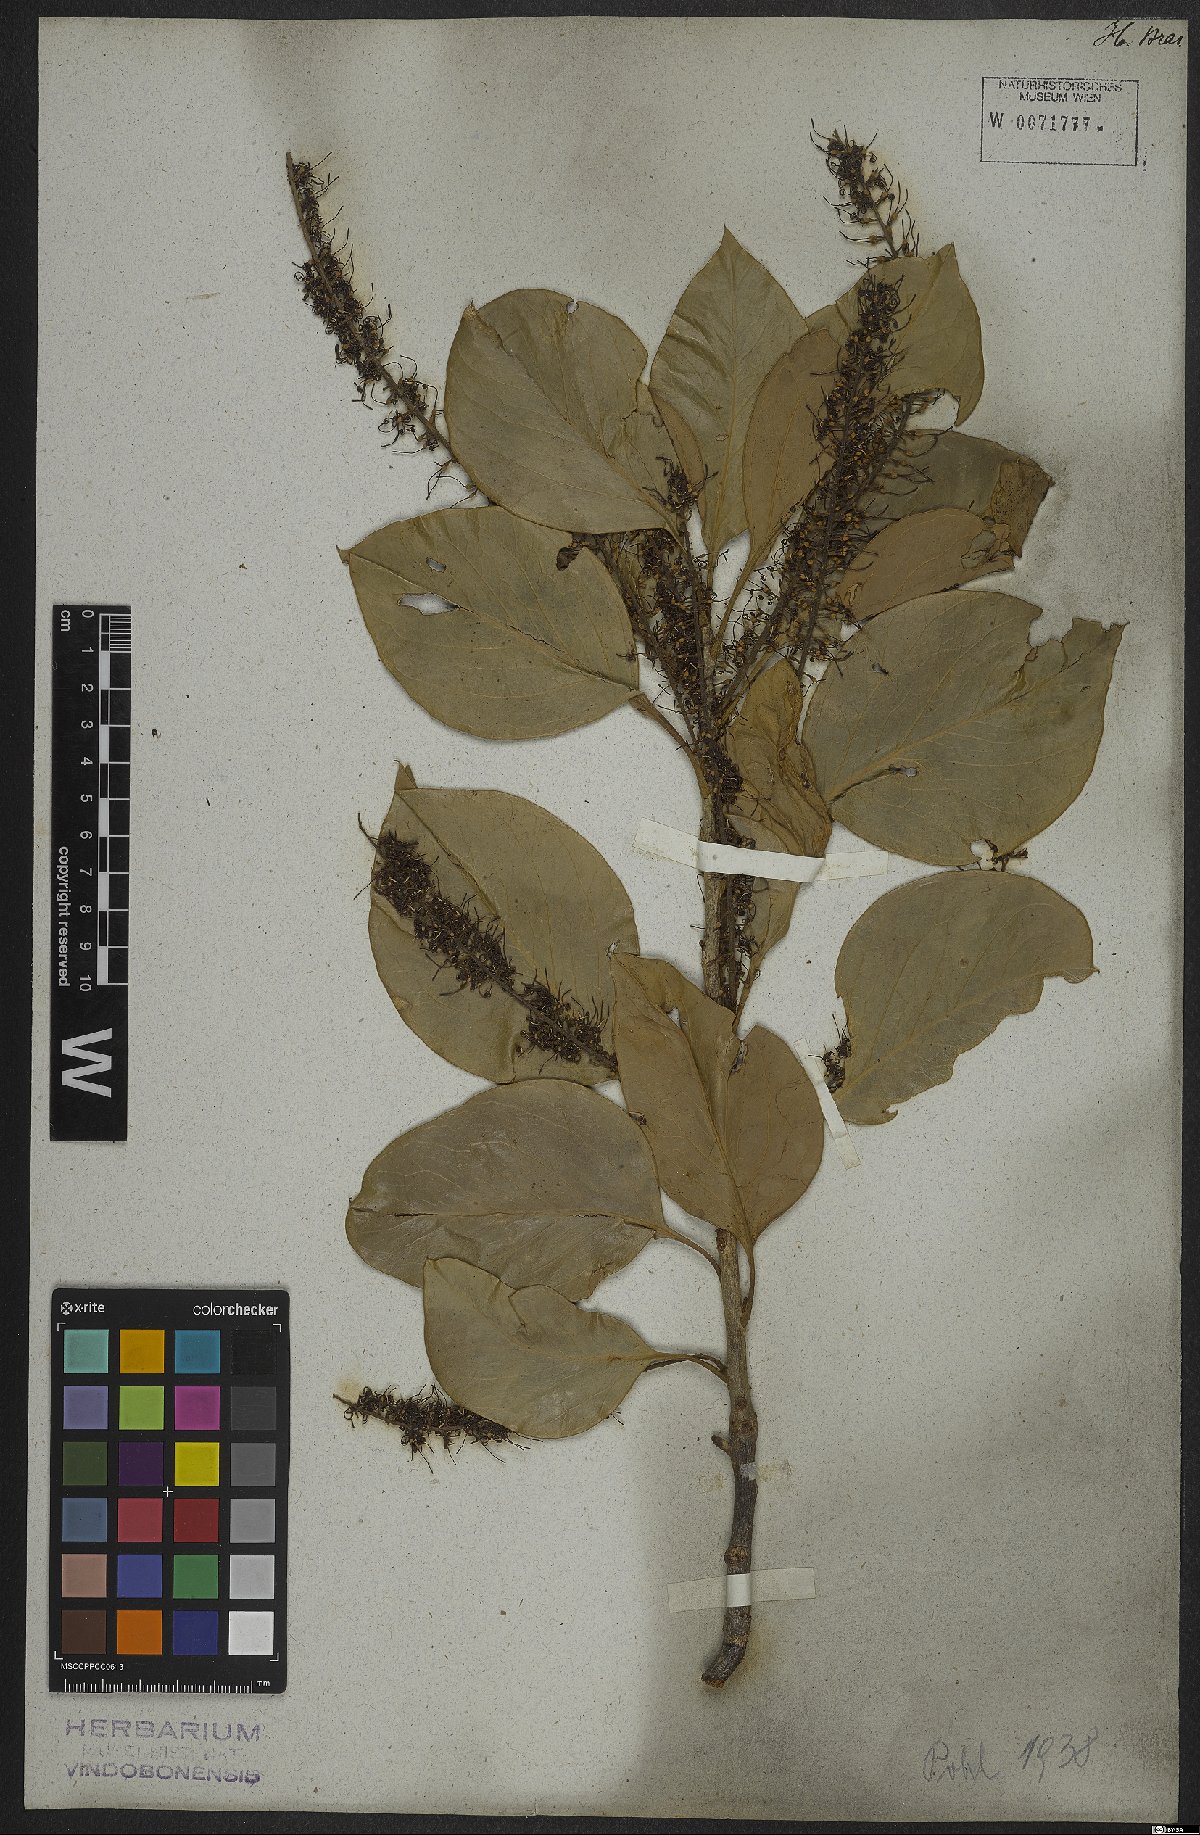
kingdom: Plantae
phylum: Tracheophyta
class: Magnoliopsida
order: Proteales
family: Proteaceae
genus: Roupala
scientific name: Roupala montana
